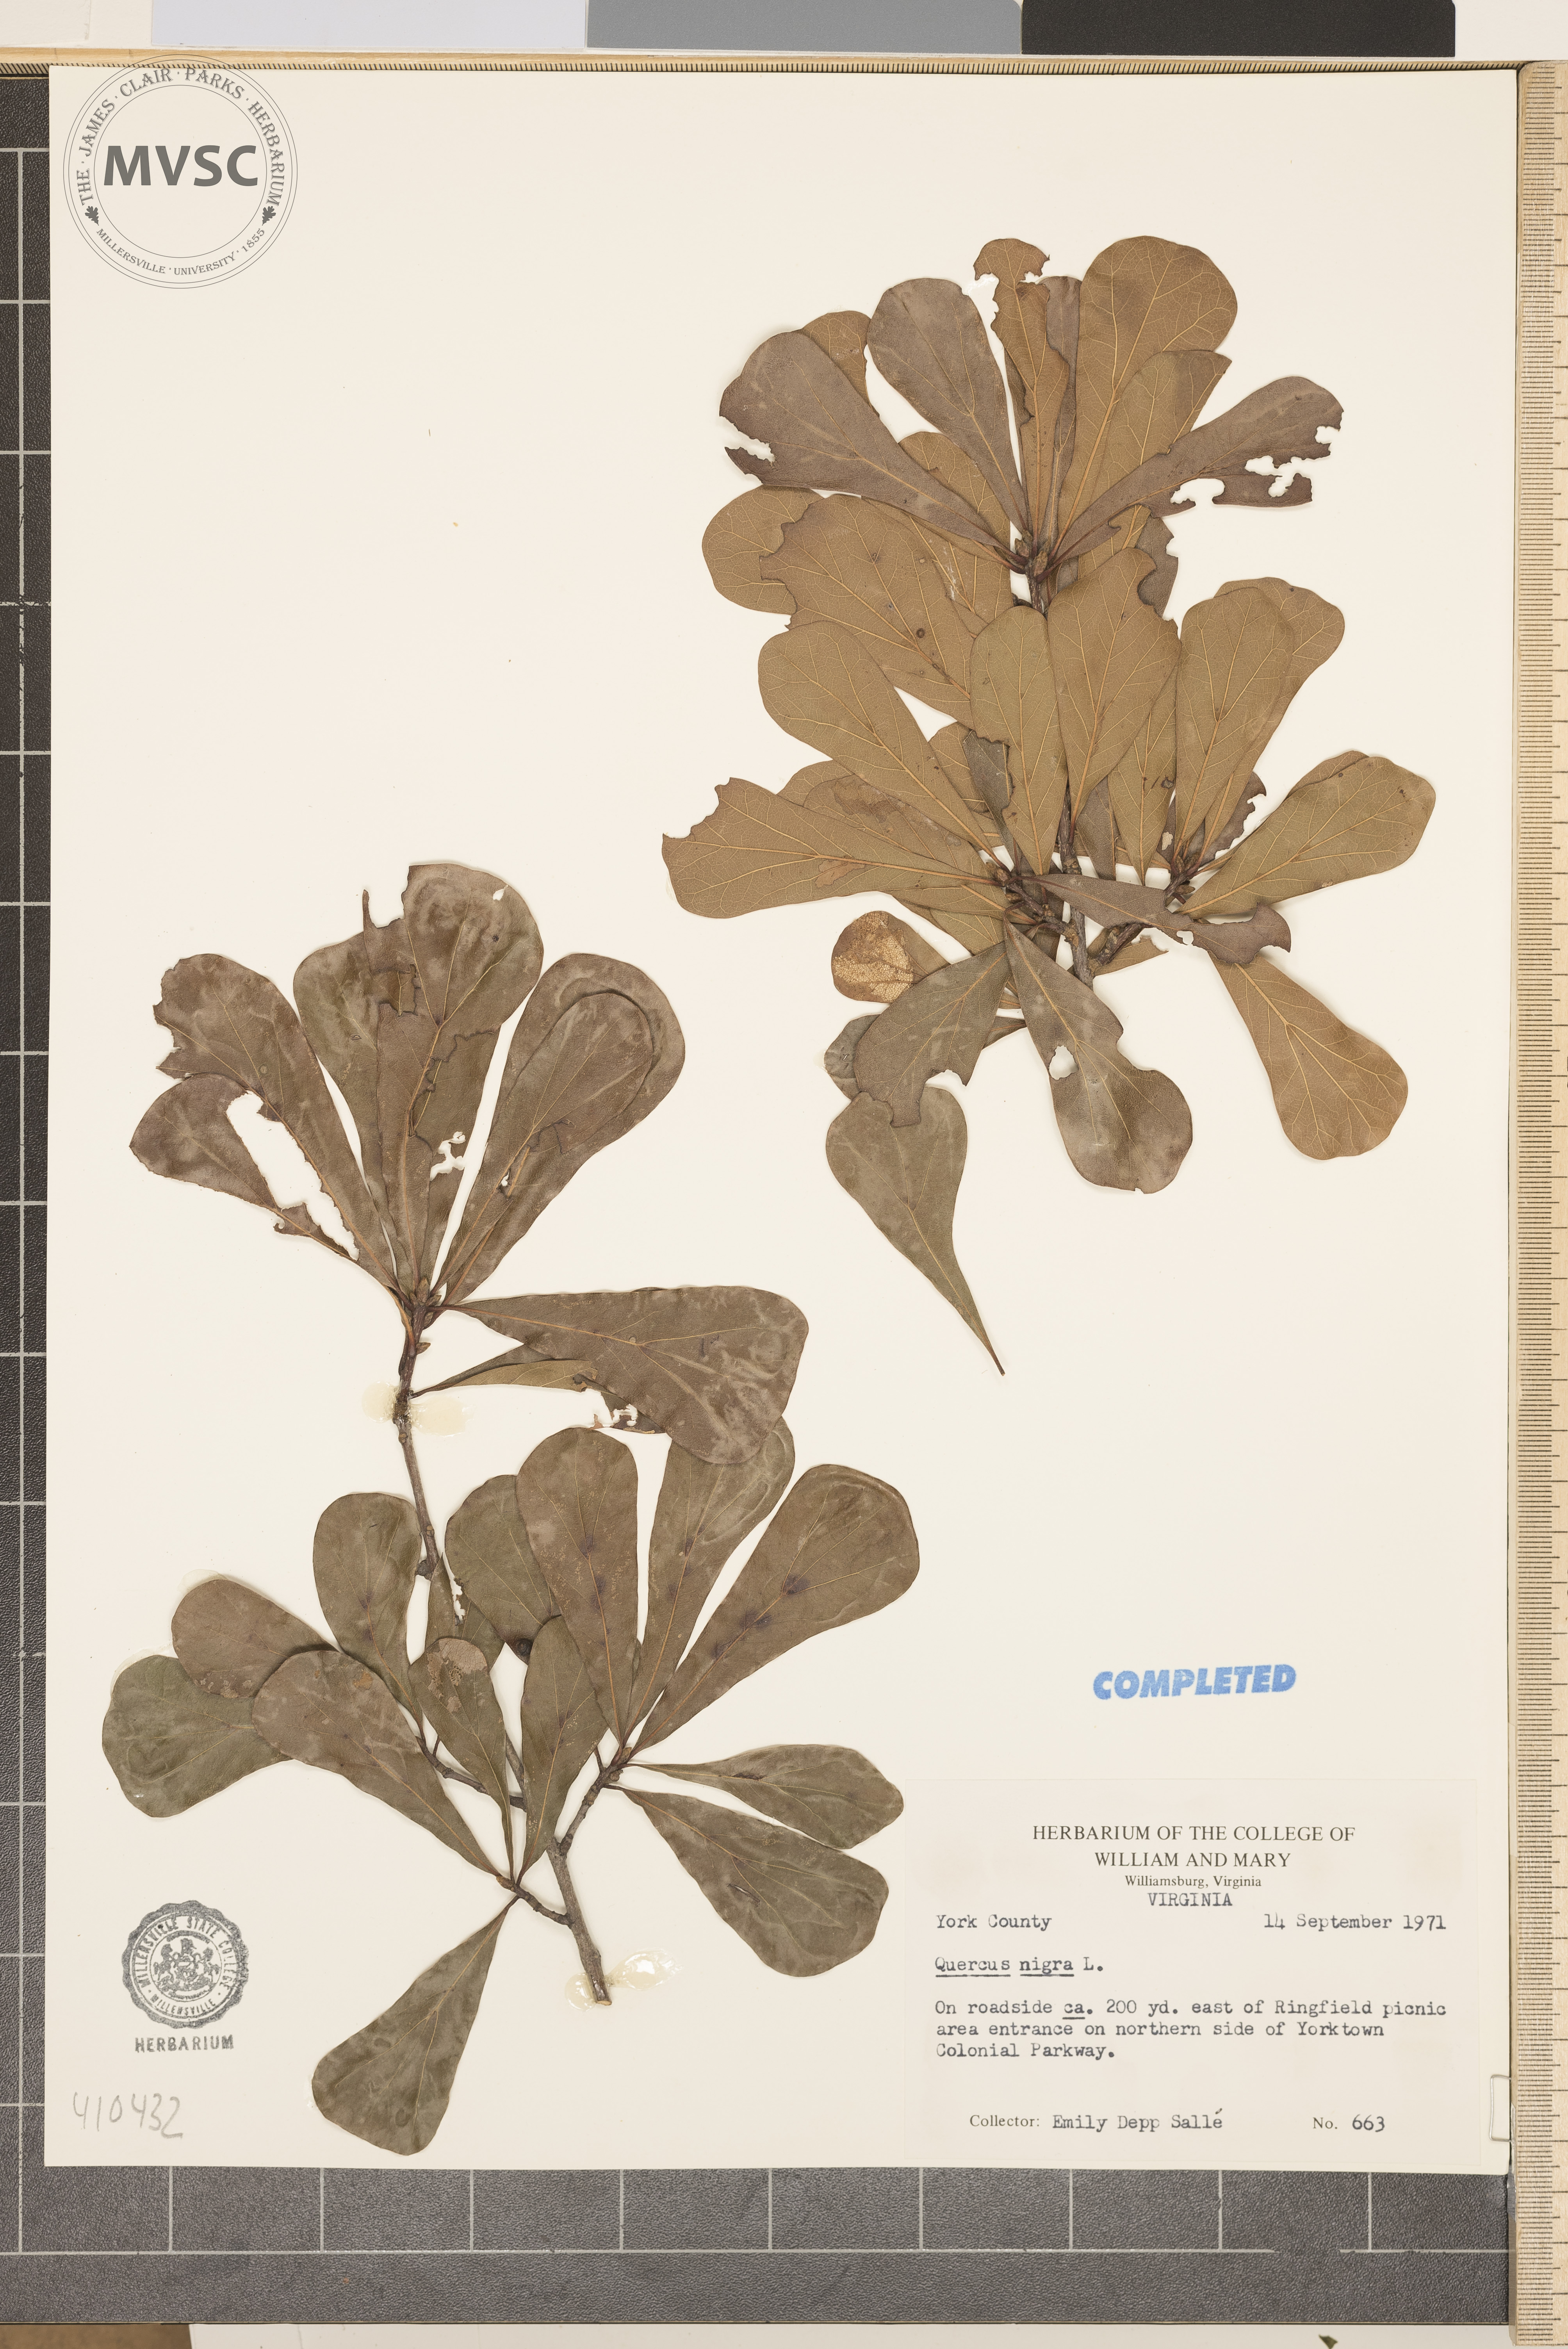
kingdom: Plantae
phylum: Tracheophyta
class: Magnoliopsida
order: Fagales
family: Fagaceae
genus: Quercus
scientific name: Quercus nigra
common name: Water oak
